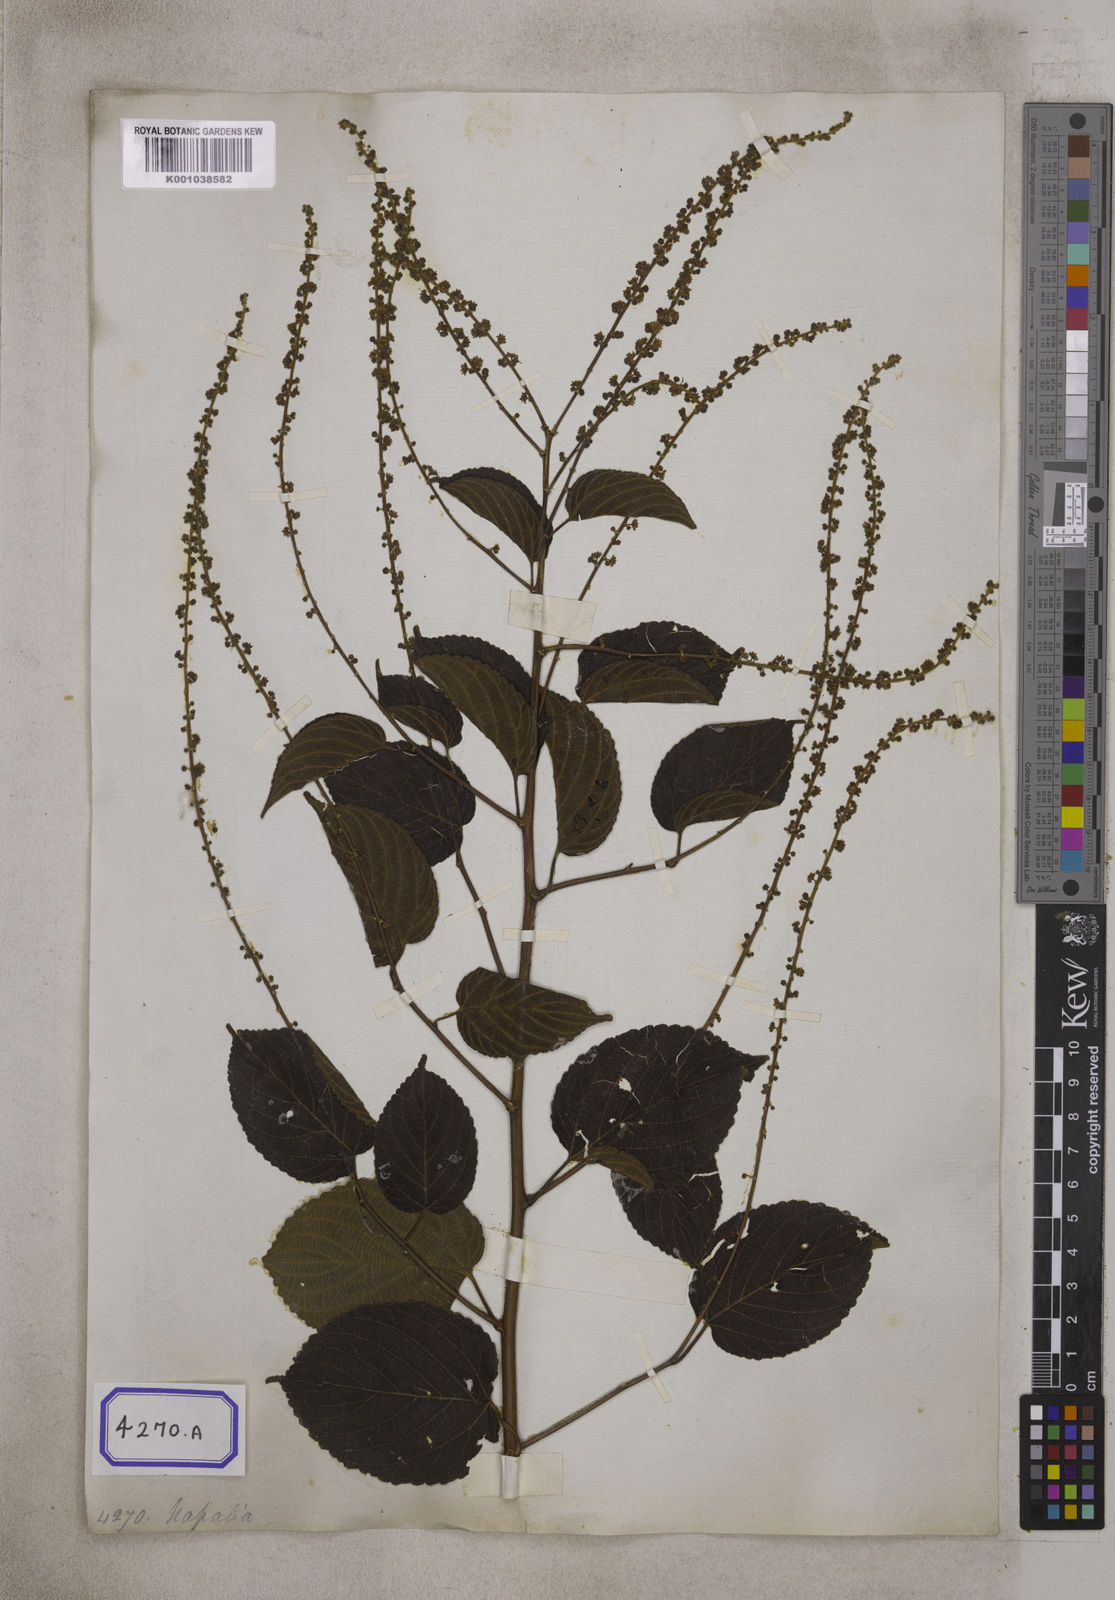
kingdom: Plantae
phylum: Tracheophyta
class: Magnoliopsida
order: Rosales
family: Rhamnaceae
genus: Gouania
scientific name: Gouania leptostachya
